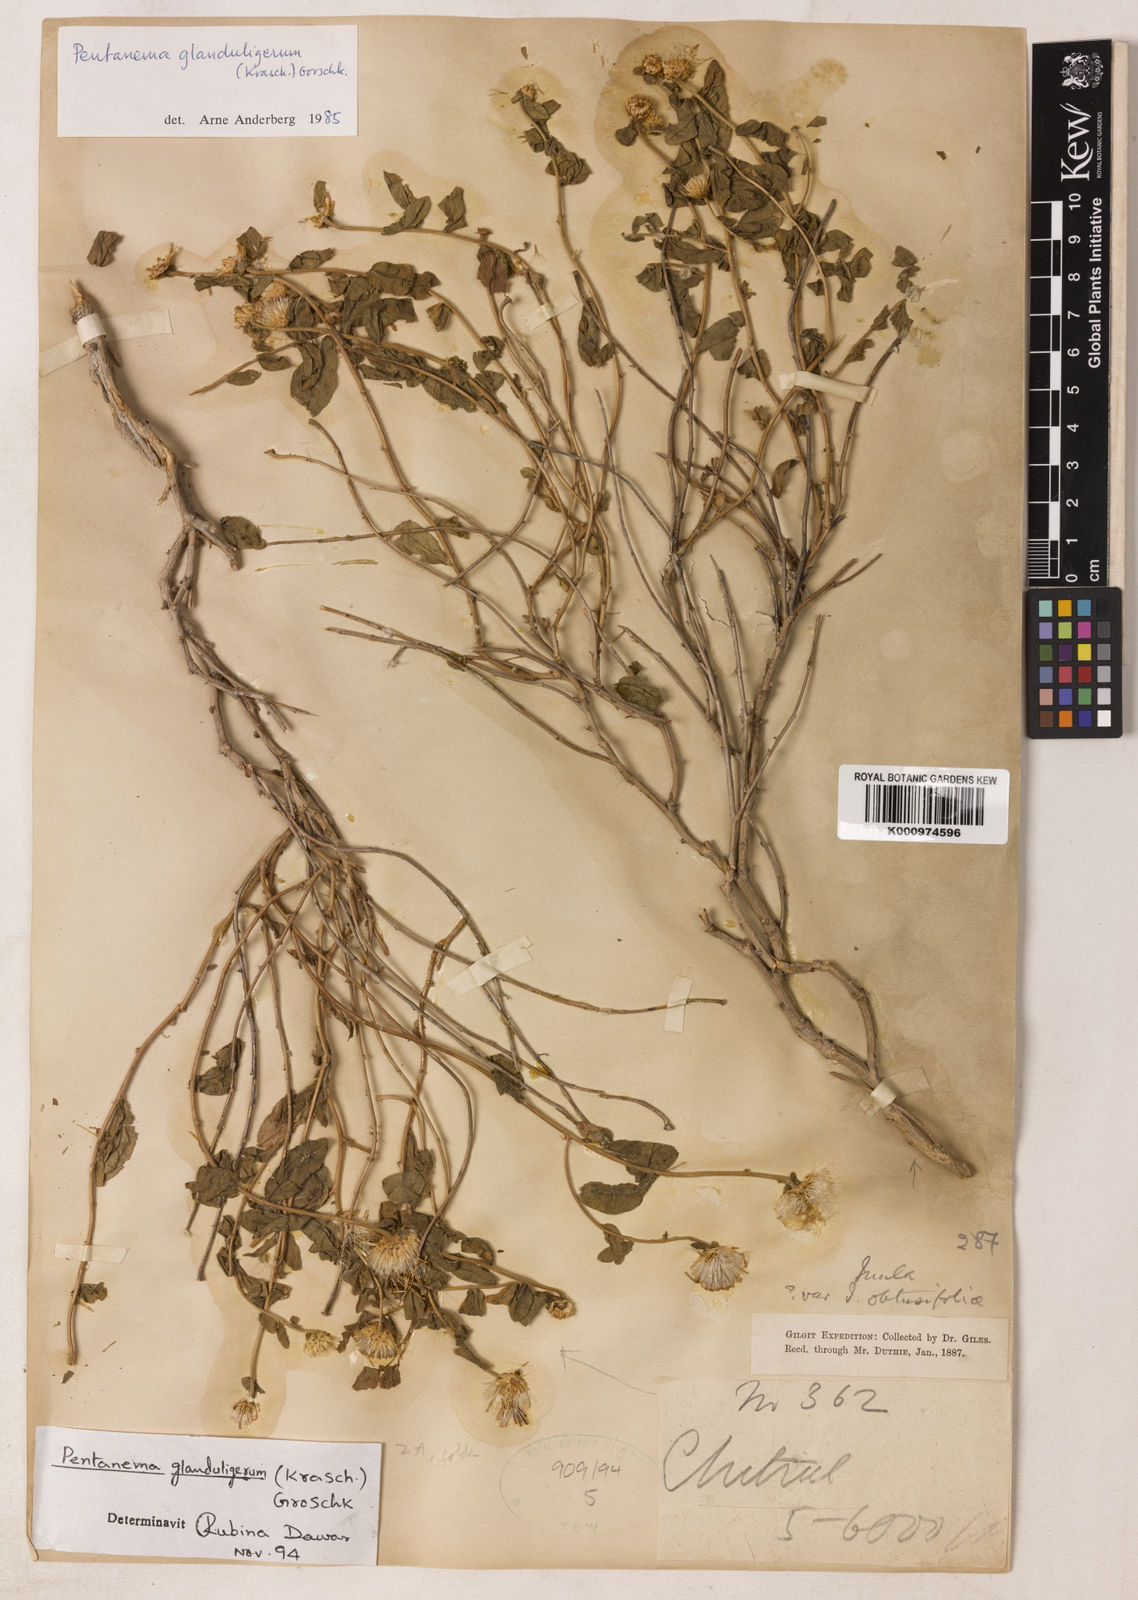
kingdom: Plantae
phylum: Tracheophyta
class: Magnoliopsida
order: Asterales
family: Asteraceae
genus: Vicoa
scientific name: Vicoa glanduligera
